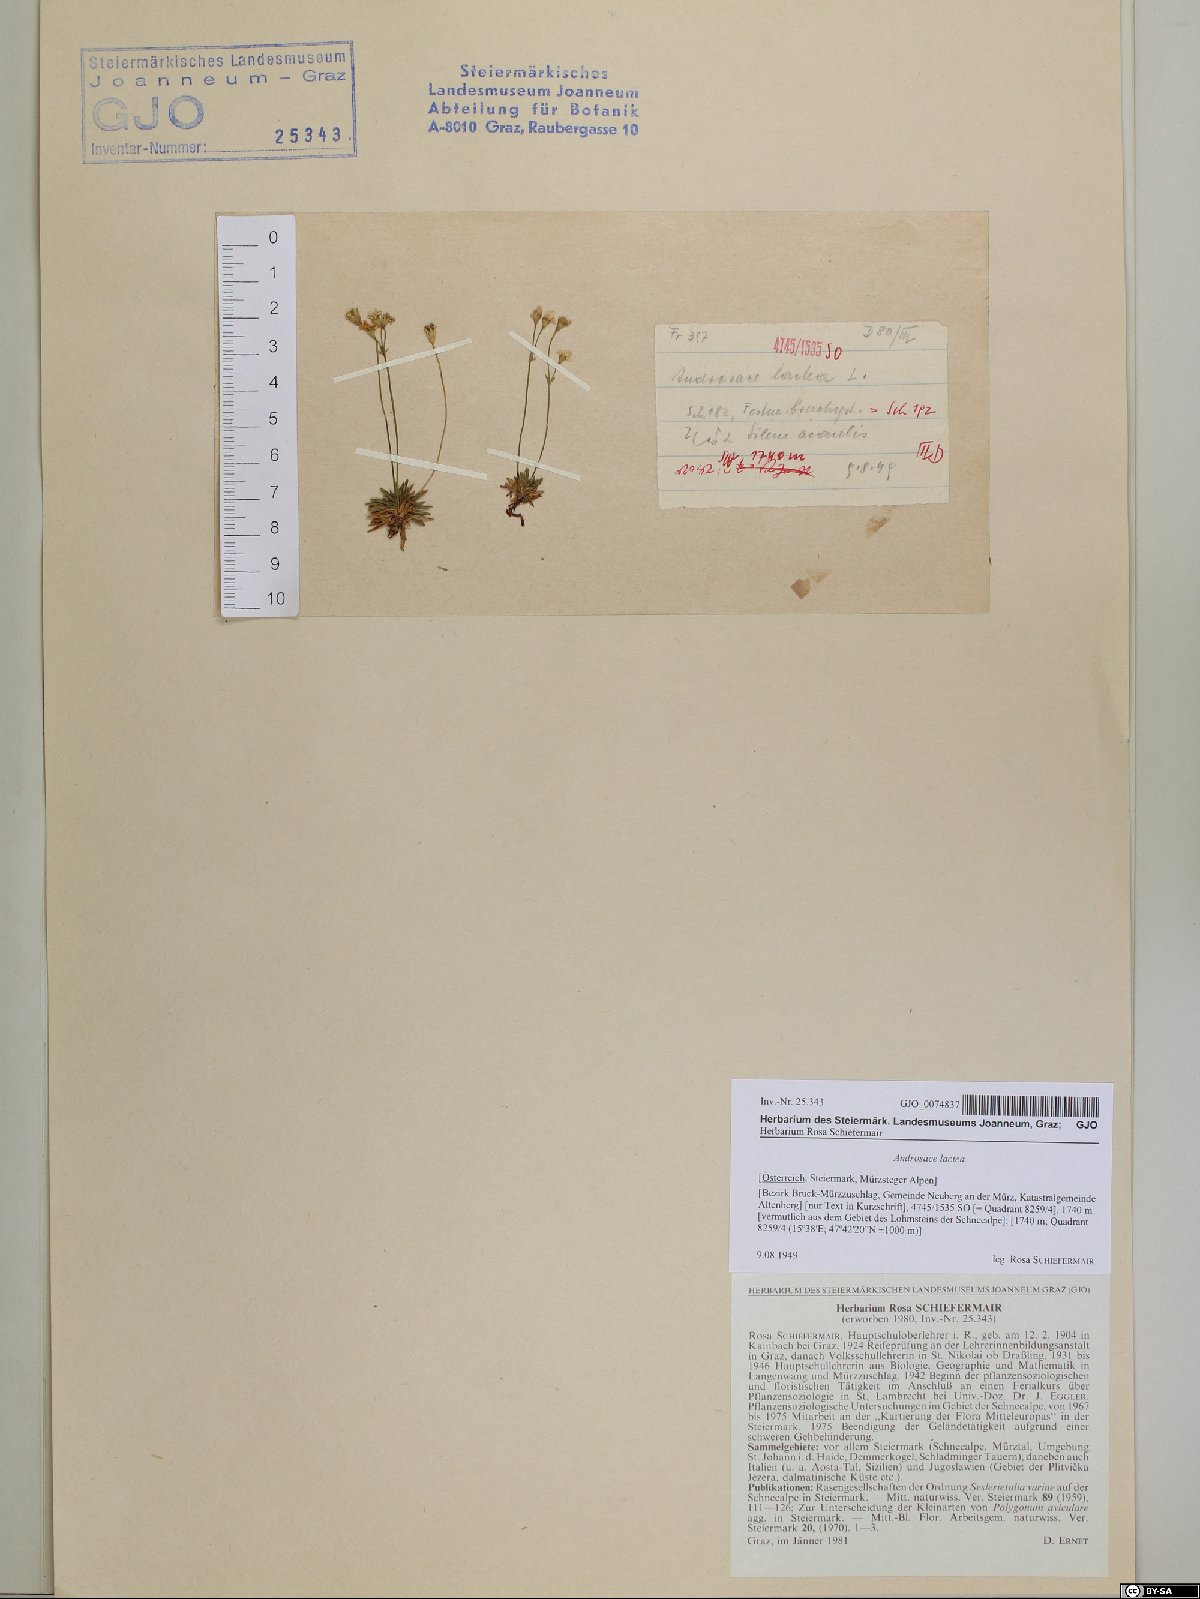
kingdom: Plantae
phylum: Tracheophyta
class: Magnoliopsida
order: Ericales
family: Primulaceae
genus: Androsace
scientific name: Androsace lactea
